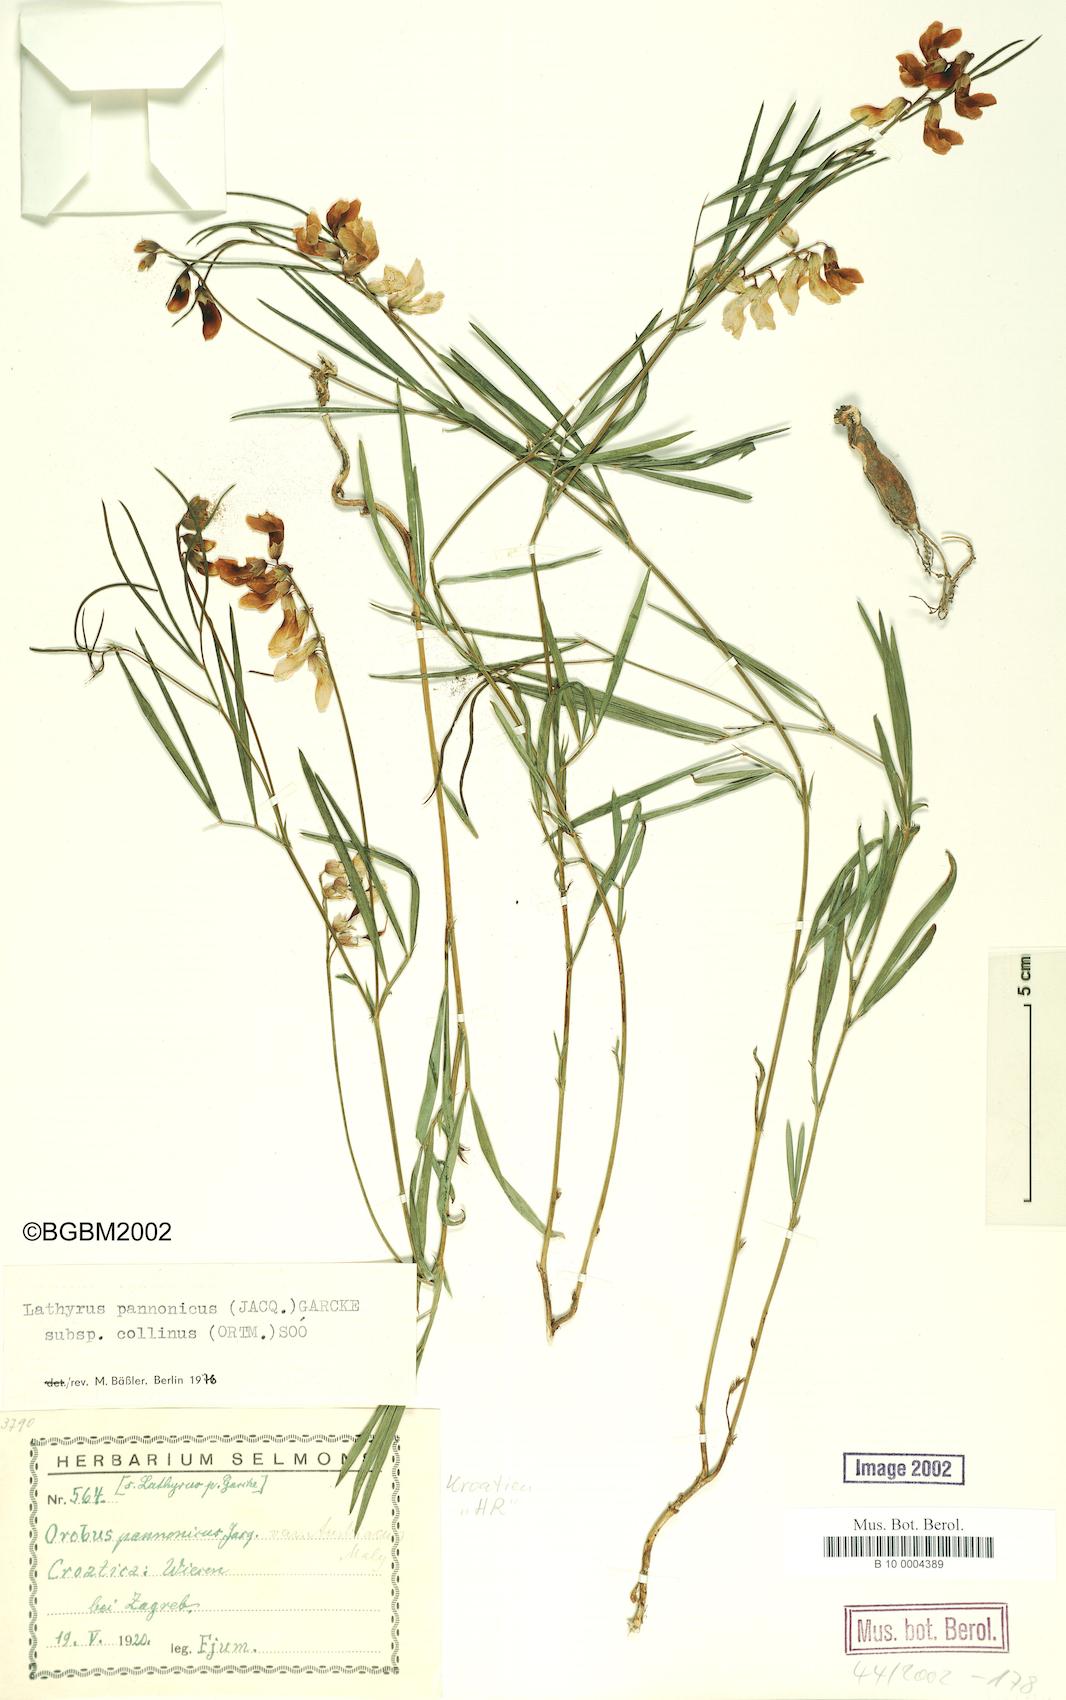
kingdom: Plantae
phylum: Tracheophyta
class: Magnoliopsida
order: Fabales
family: Fabaceae
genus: Lathyrus
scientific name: Lathyrus pannonicus
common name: Pea
